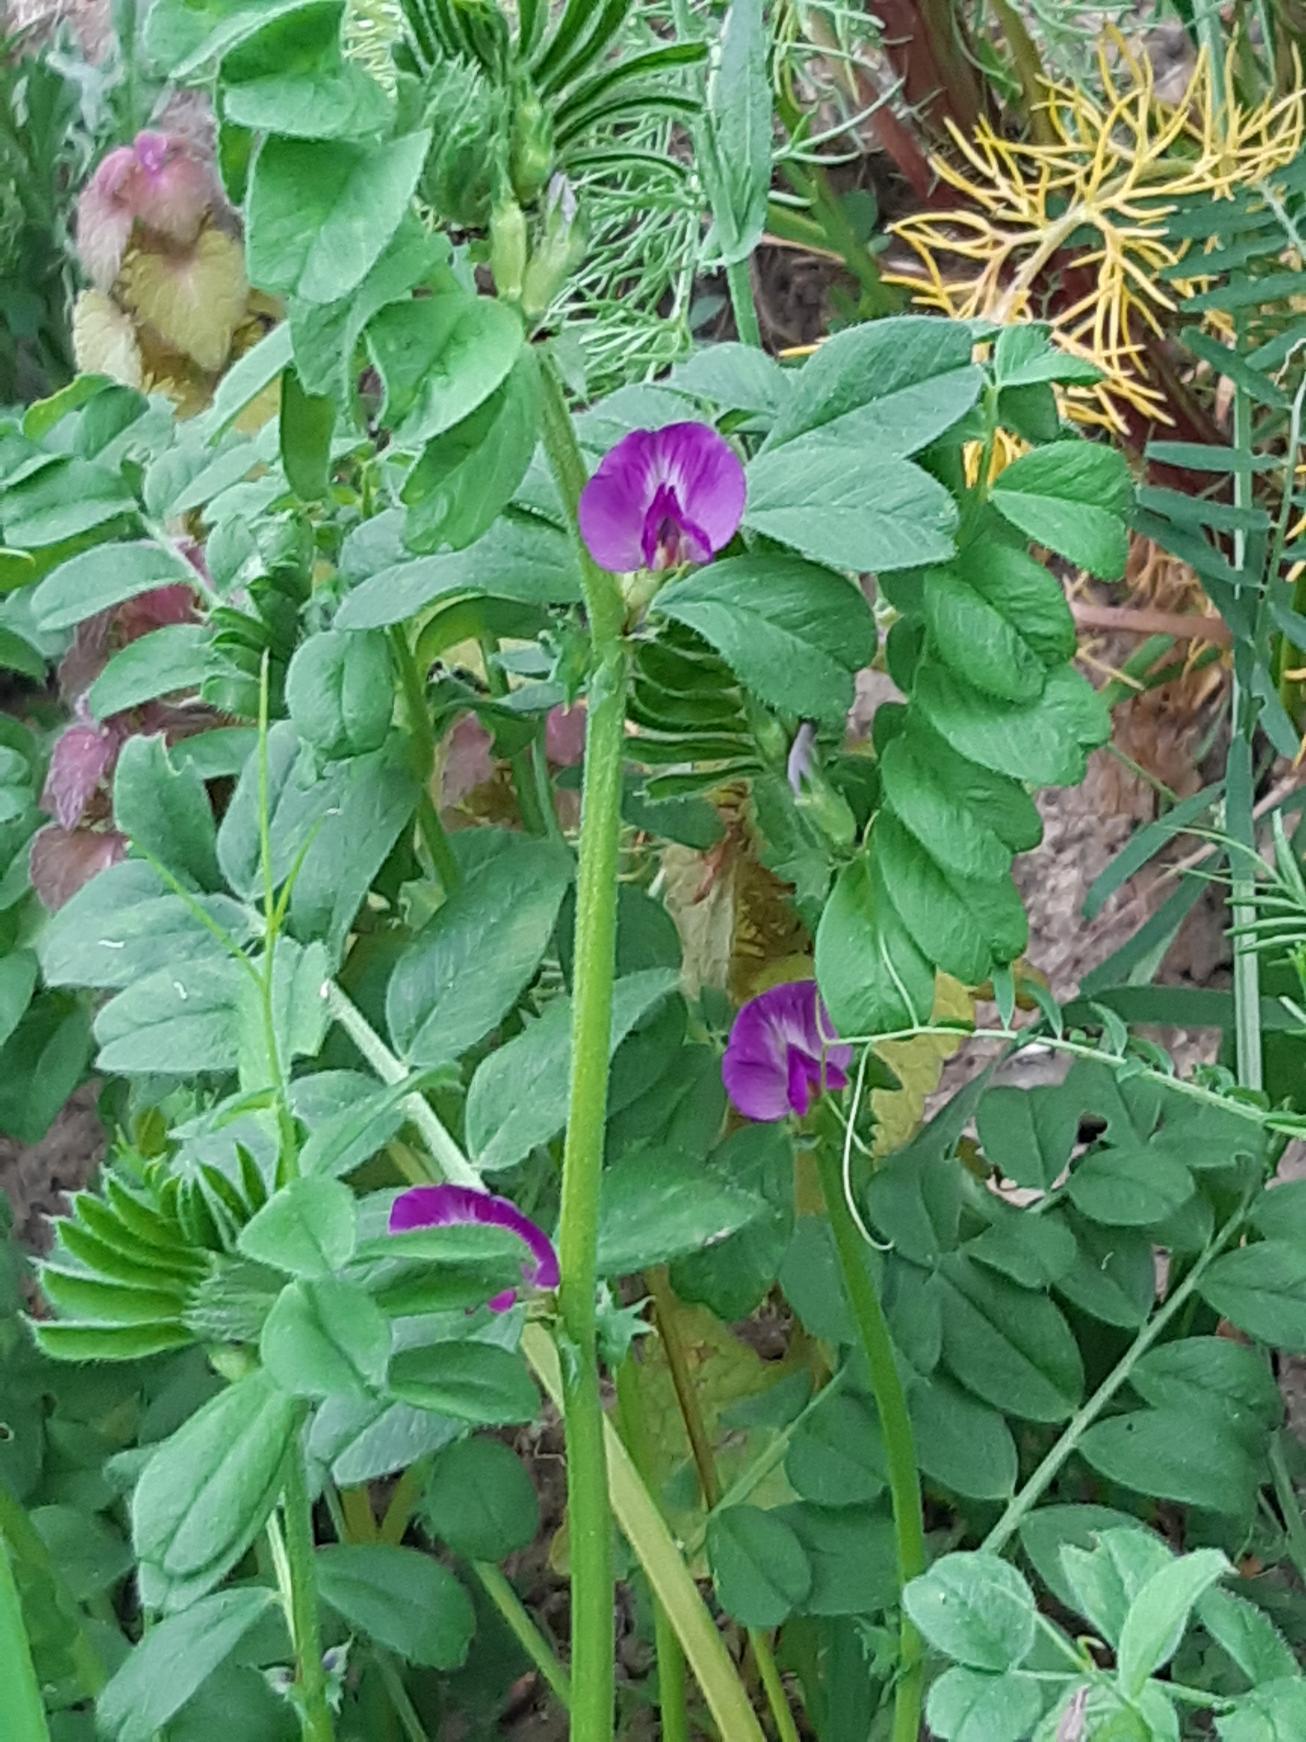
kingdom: Plantae
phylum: Tracheophyta
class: Magnoliopsida
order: Fabales
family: Fabaceae
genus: Vicia
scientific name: Vicia sativa
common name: Foder-vikke
